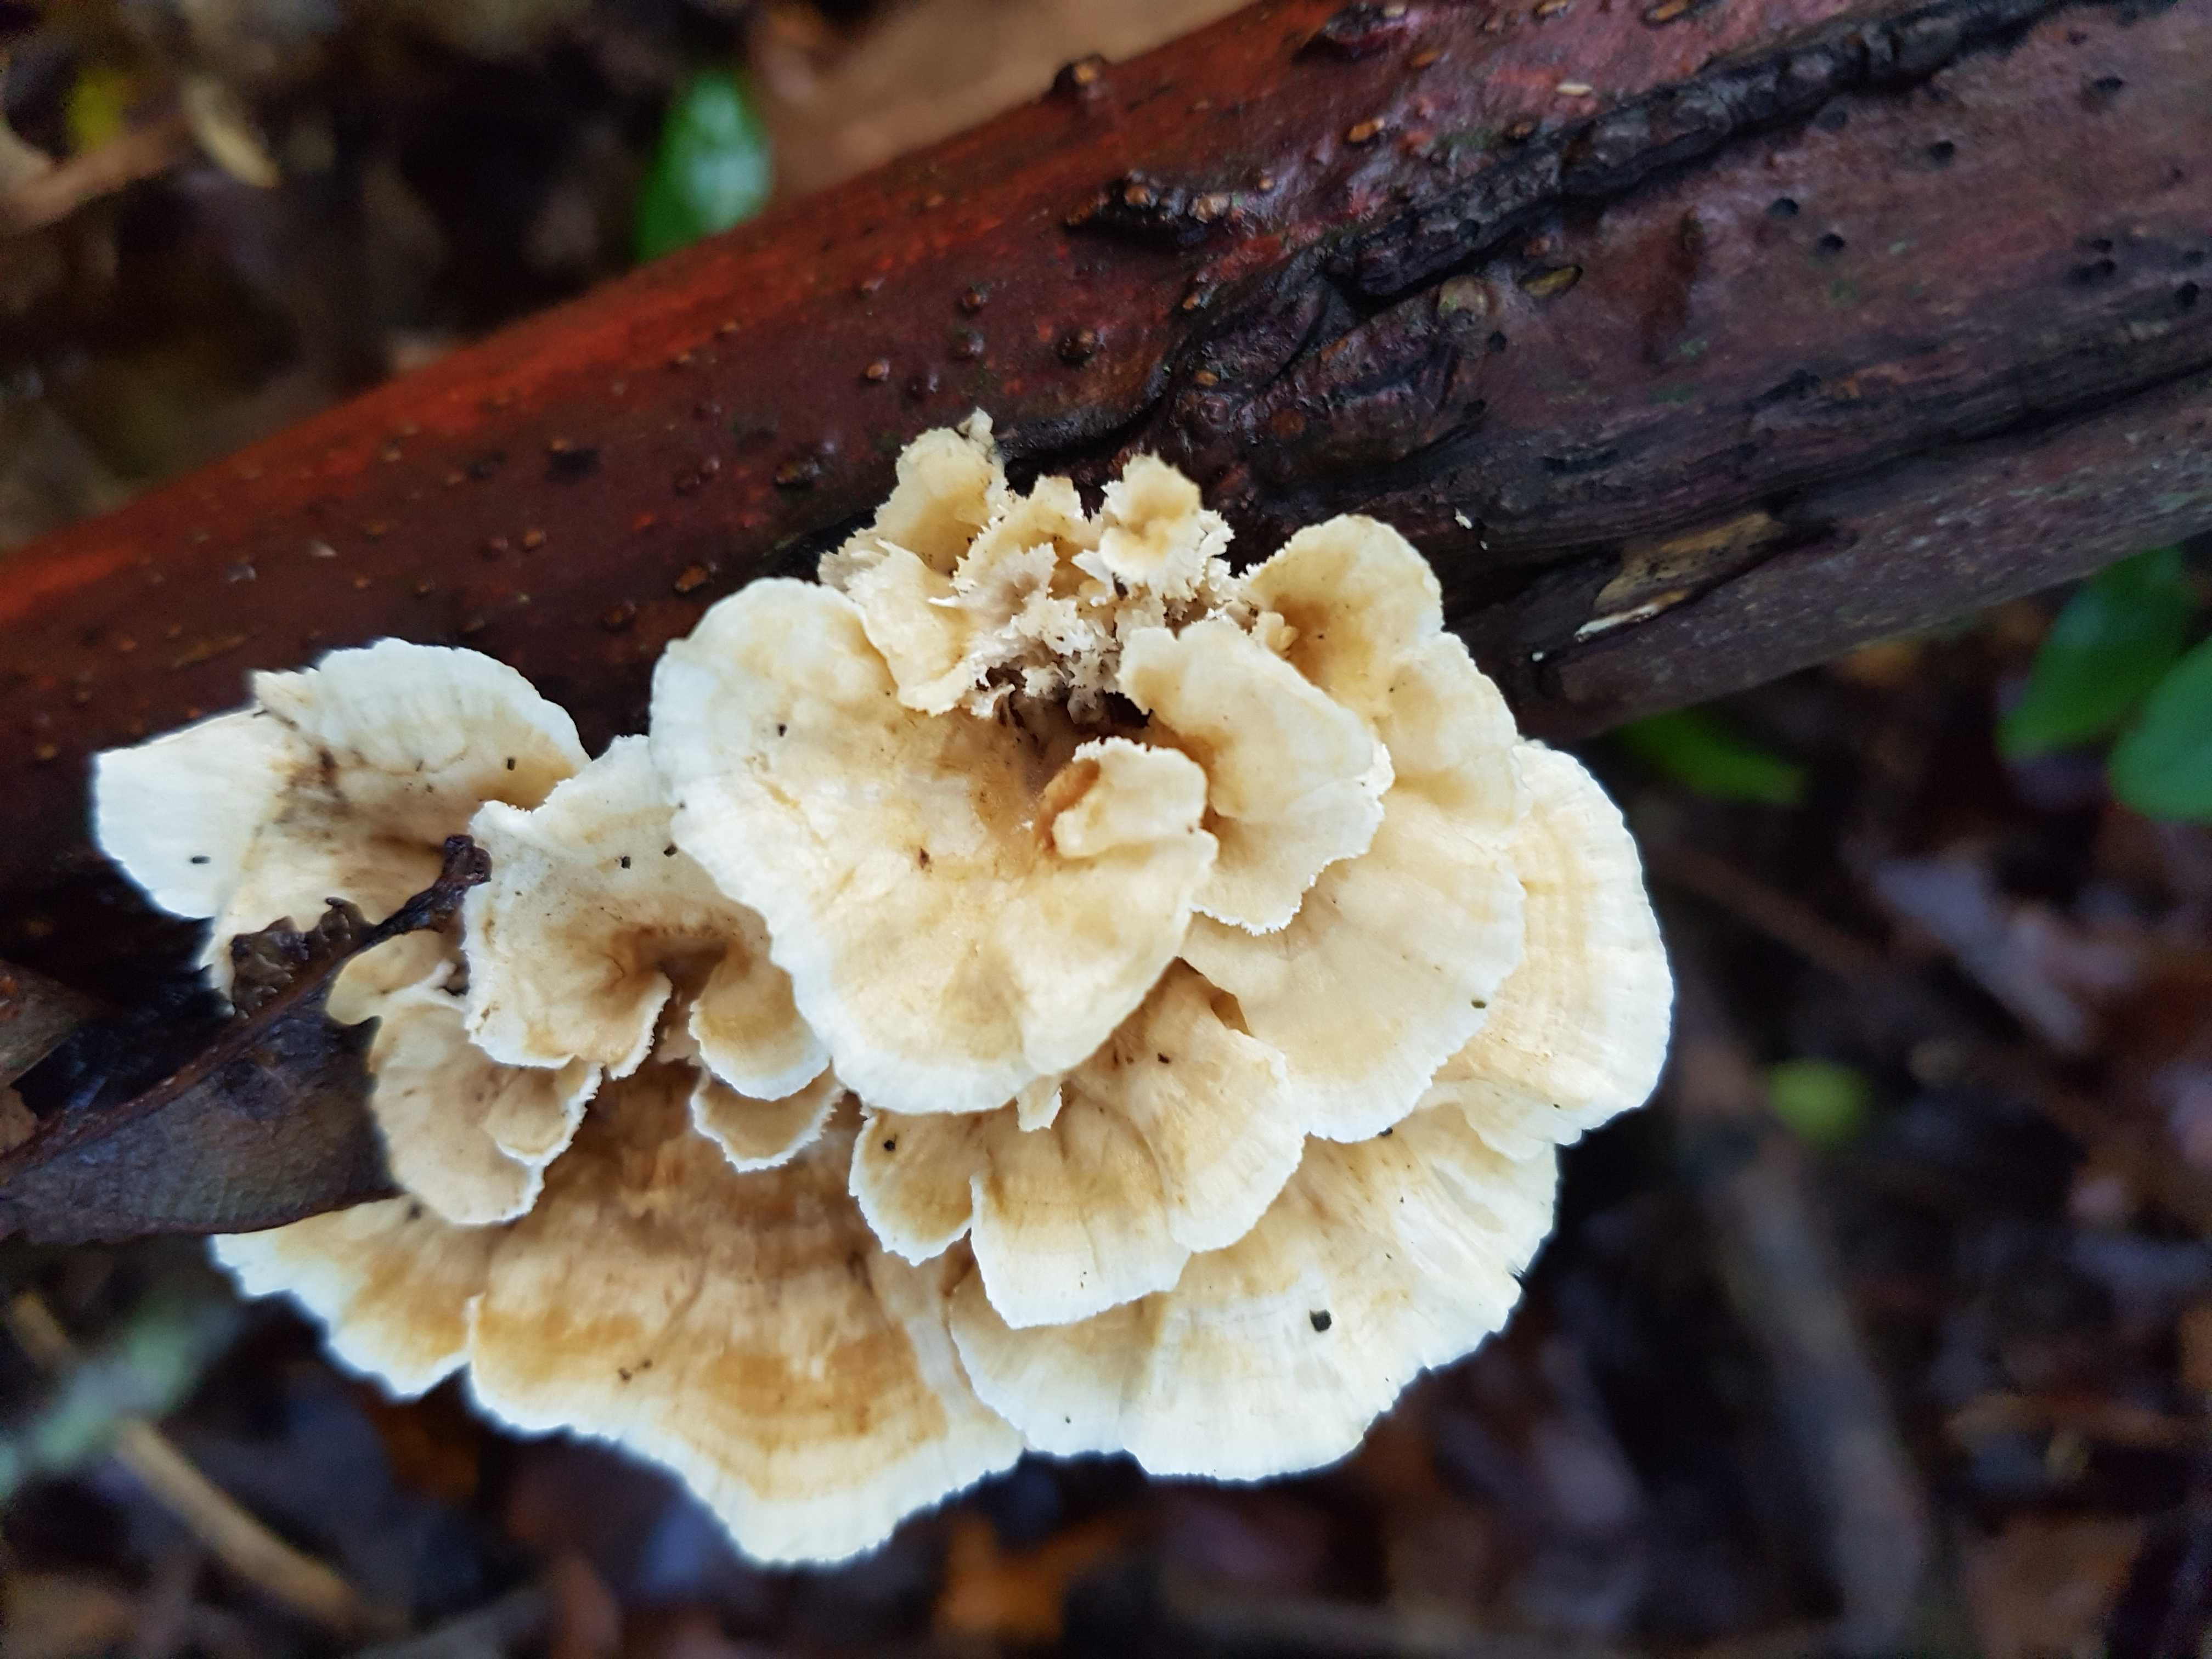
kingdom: Fungi
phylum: Basidiomycota
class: Agaricomycetes
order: Polyporales
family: Polyporaceae
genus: Trametes
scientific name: Trametes
